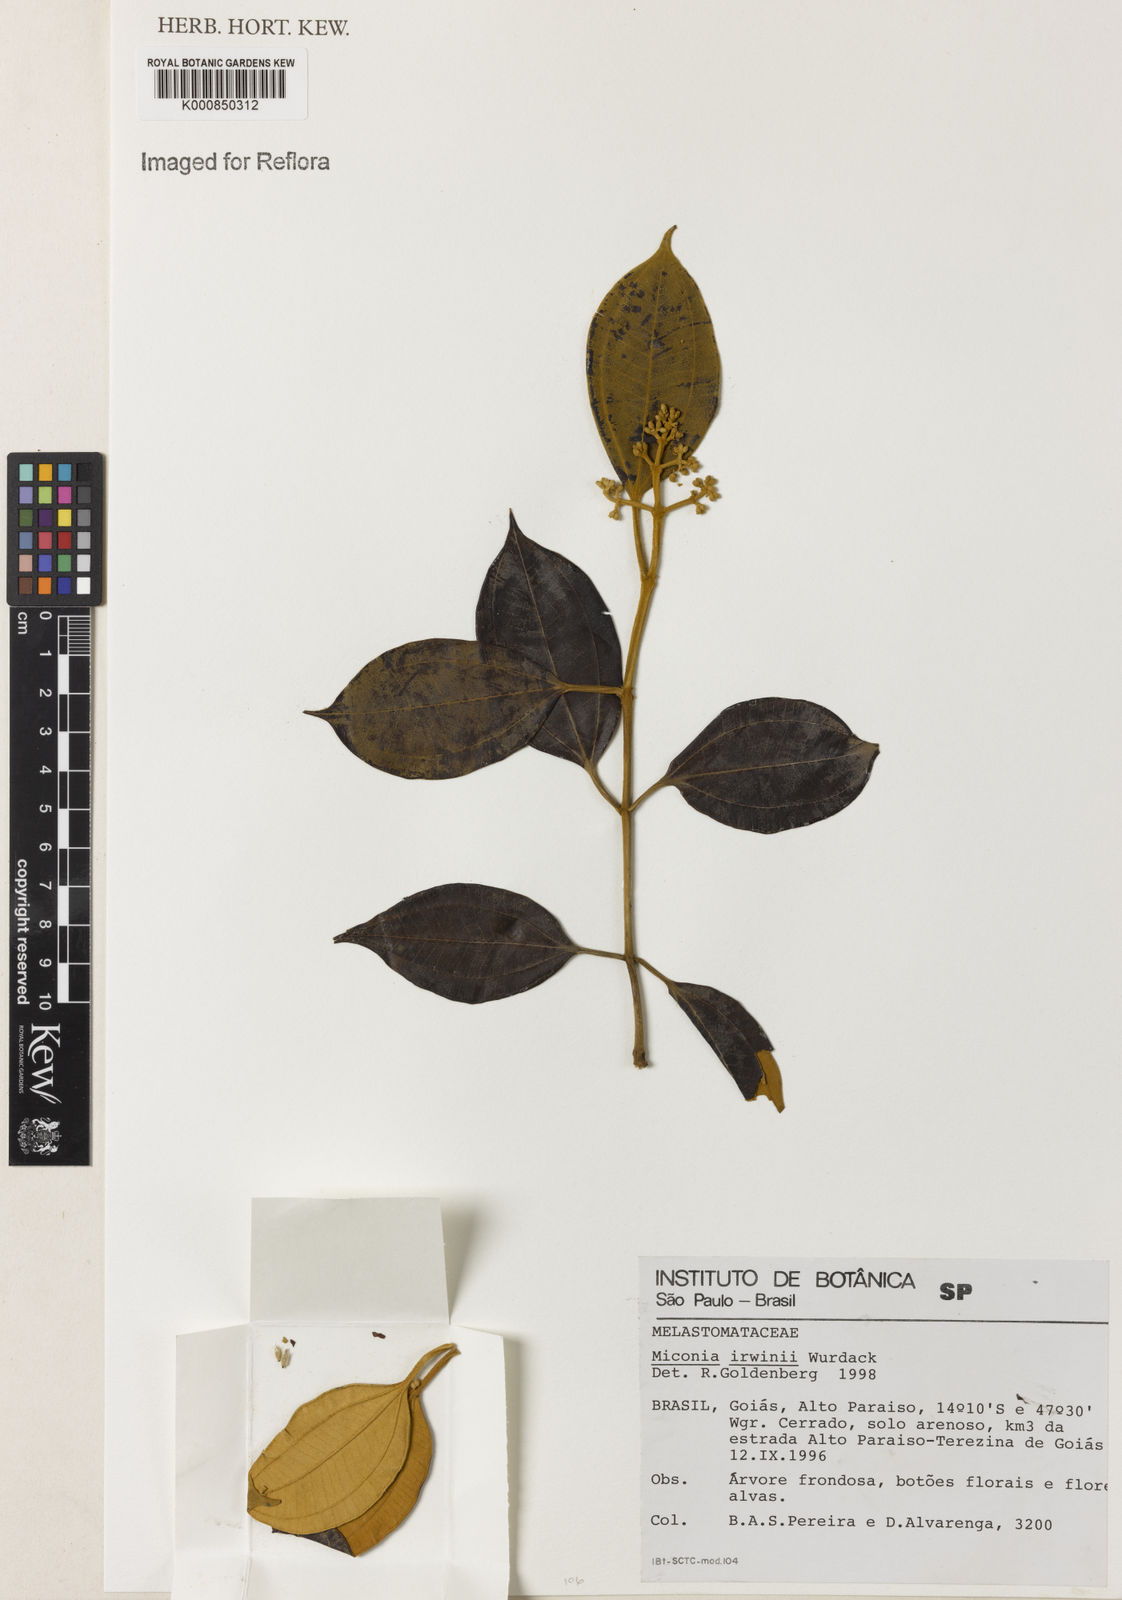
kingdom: Plantae
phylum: Tracheophyta
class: Magnoliopsida
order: Myrtales
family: Melastomataceae
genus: Miconia
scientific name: Miconia irwinii
